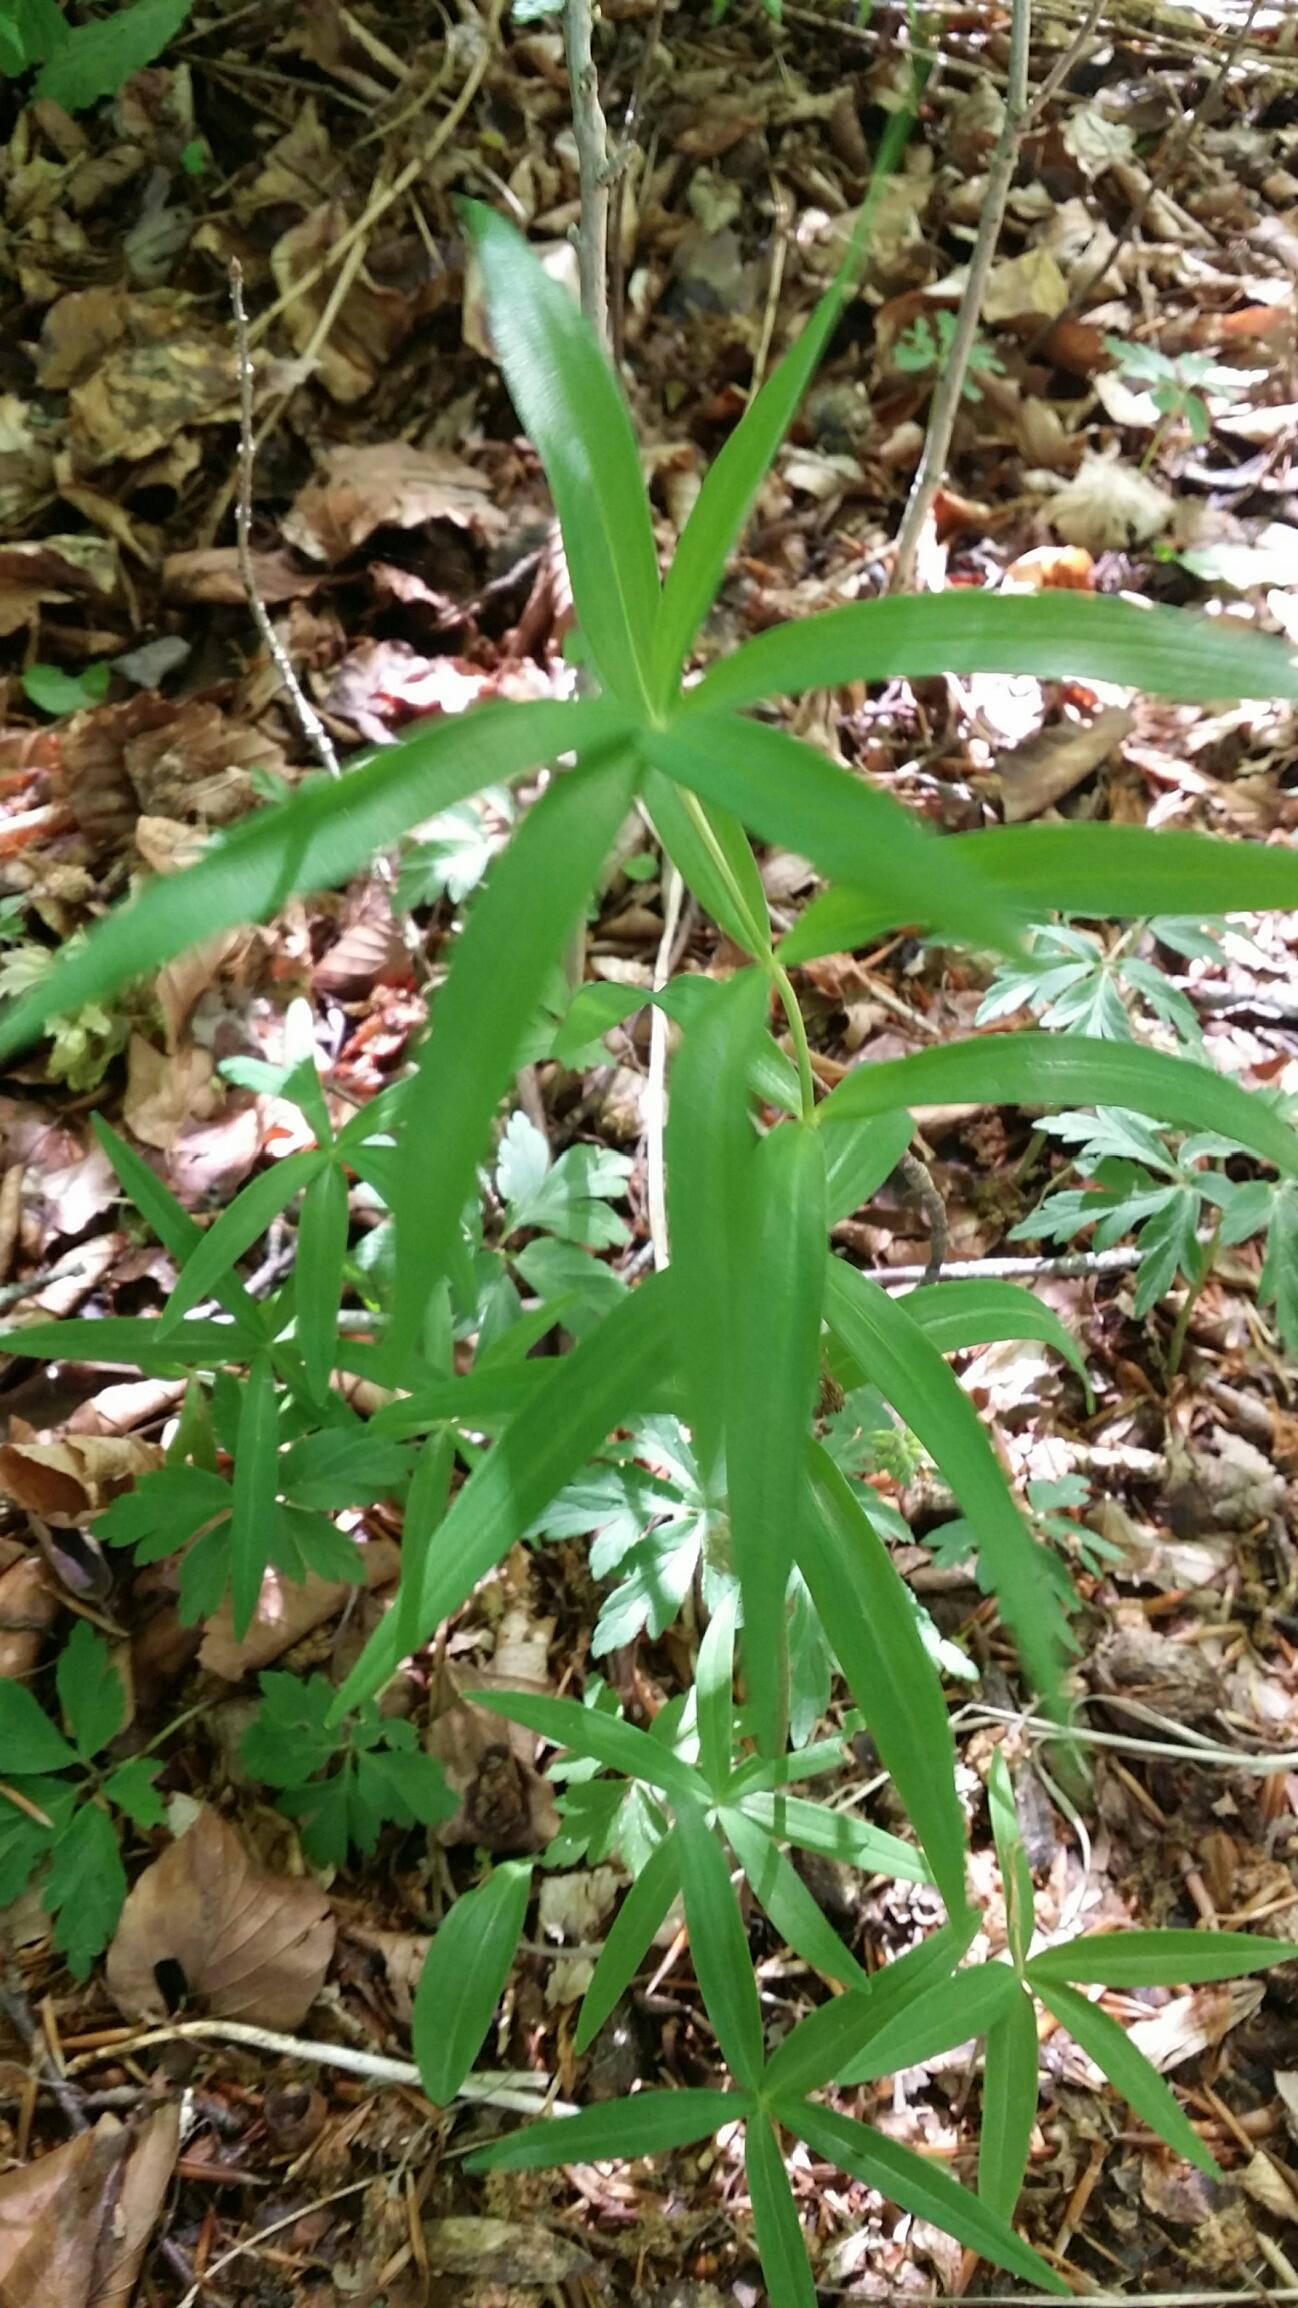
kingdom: Plantae
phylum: Tracheophyta
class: Liliopsida
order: Asparagales
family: Asparagaceae
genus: Polygonatum
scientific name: Polygonatum verticillatum
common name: Krans-konval
